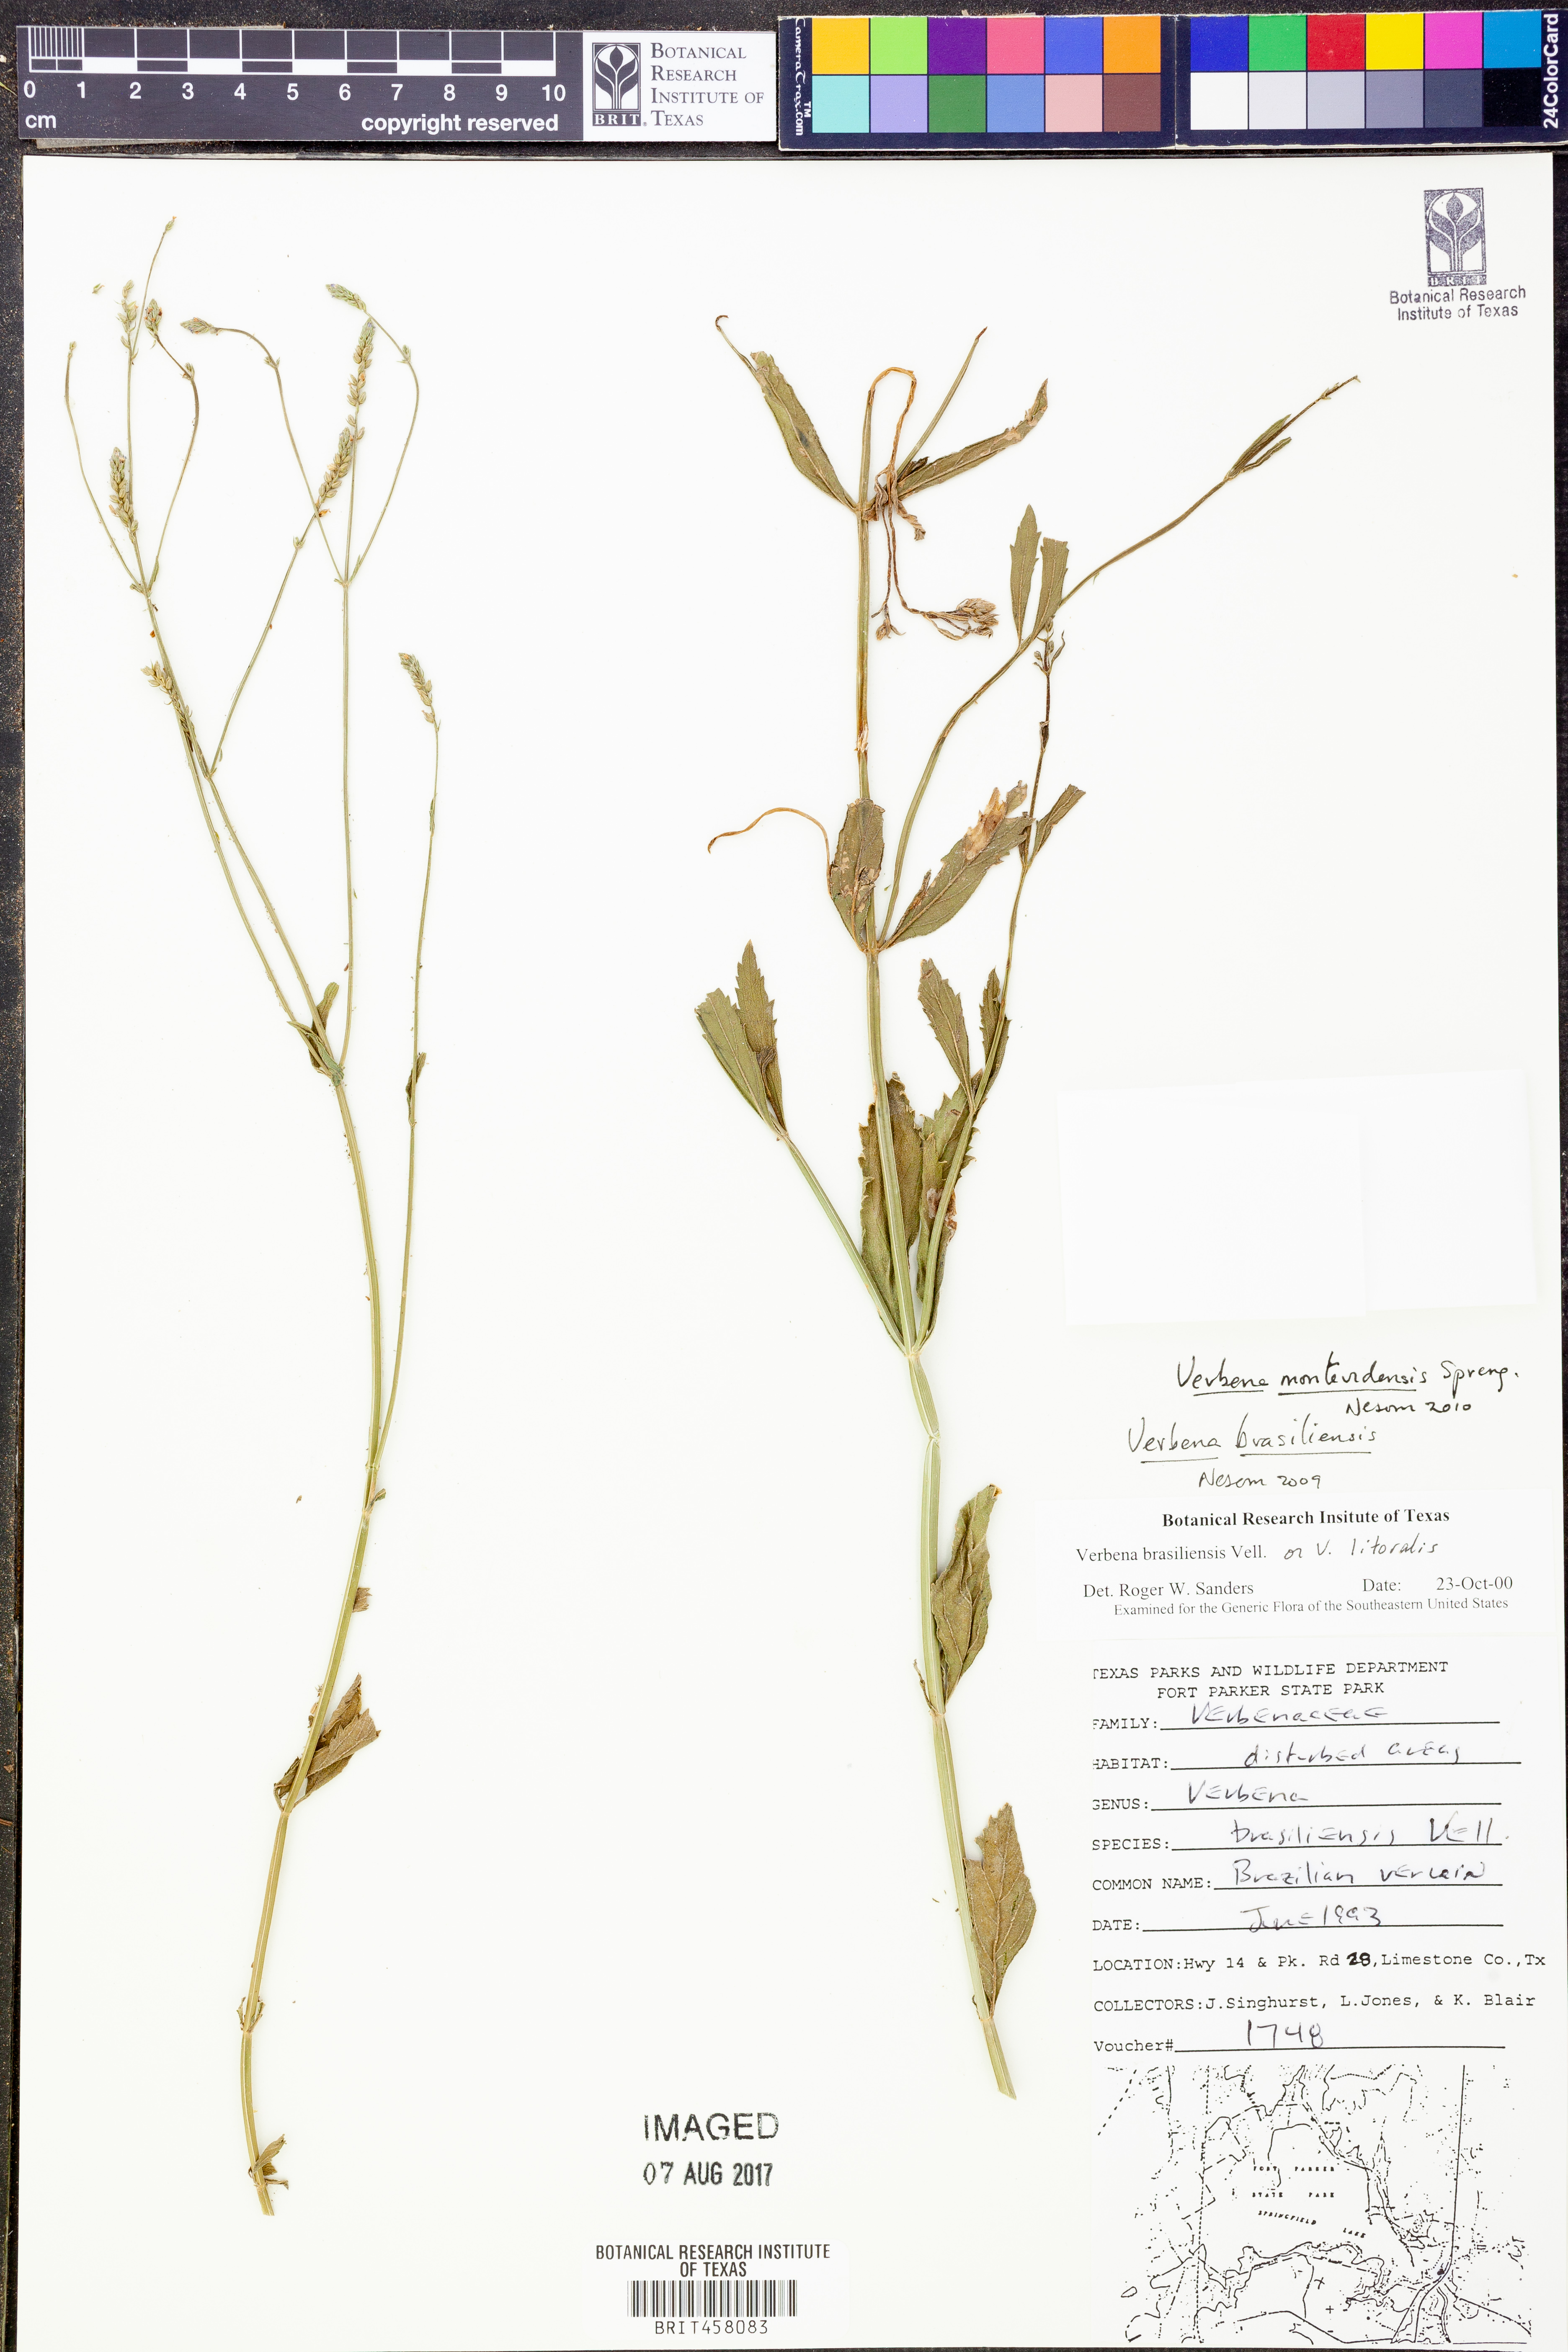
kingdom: Plantae
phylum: Tracheophyta
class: Magnoliopsida
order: Lamiales
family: Verbenaceae
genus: Verbena
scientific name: Verbena montevidensis
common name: Uruguayan vervain
